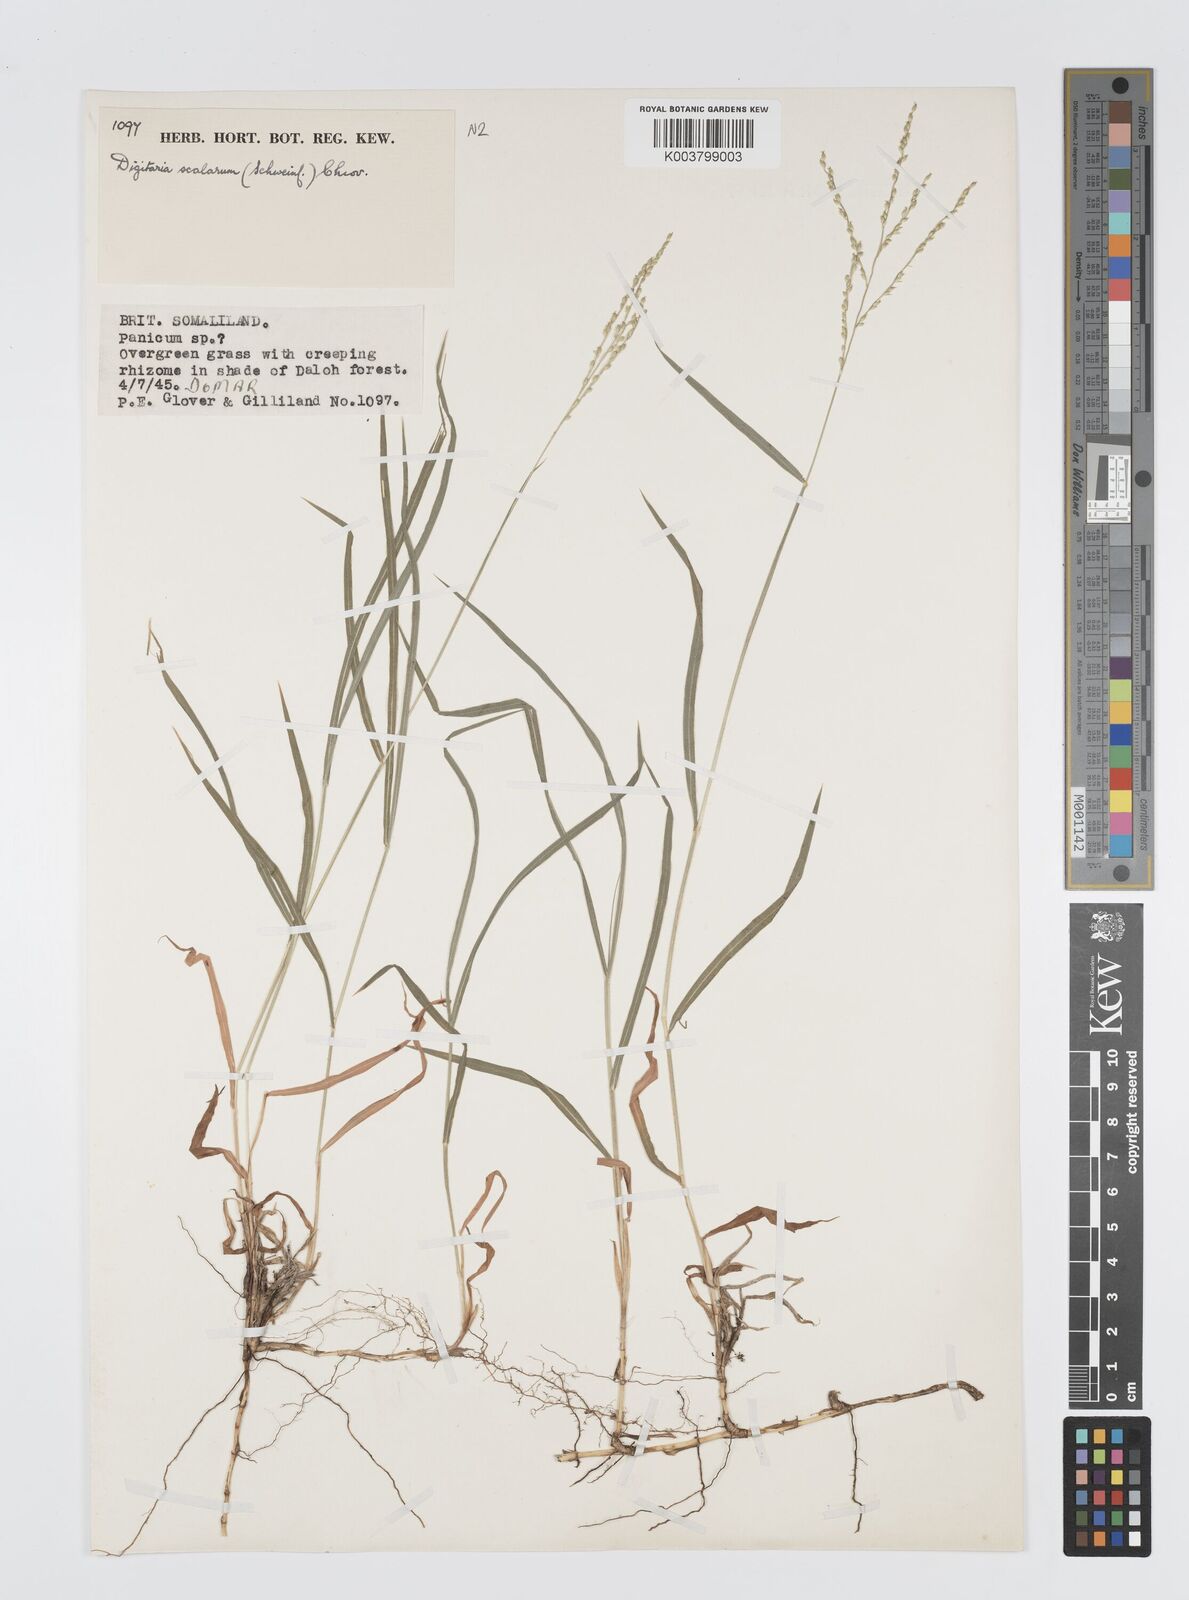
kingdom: Plantae
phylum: Tracheophyta
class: Liliopsida
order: Poales
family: Poaceae
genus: Digitaria
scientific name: Digitaria abyssinica
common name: African couchgrass
